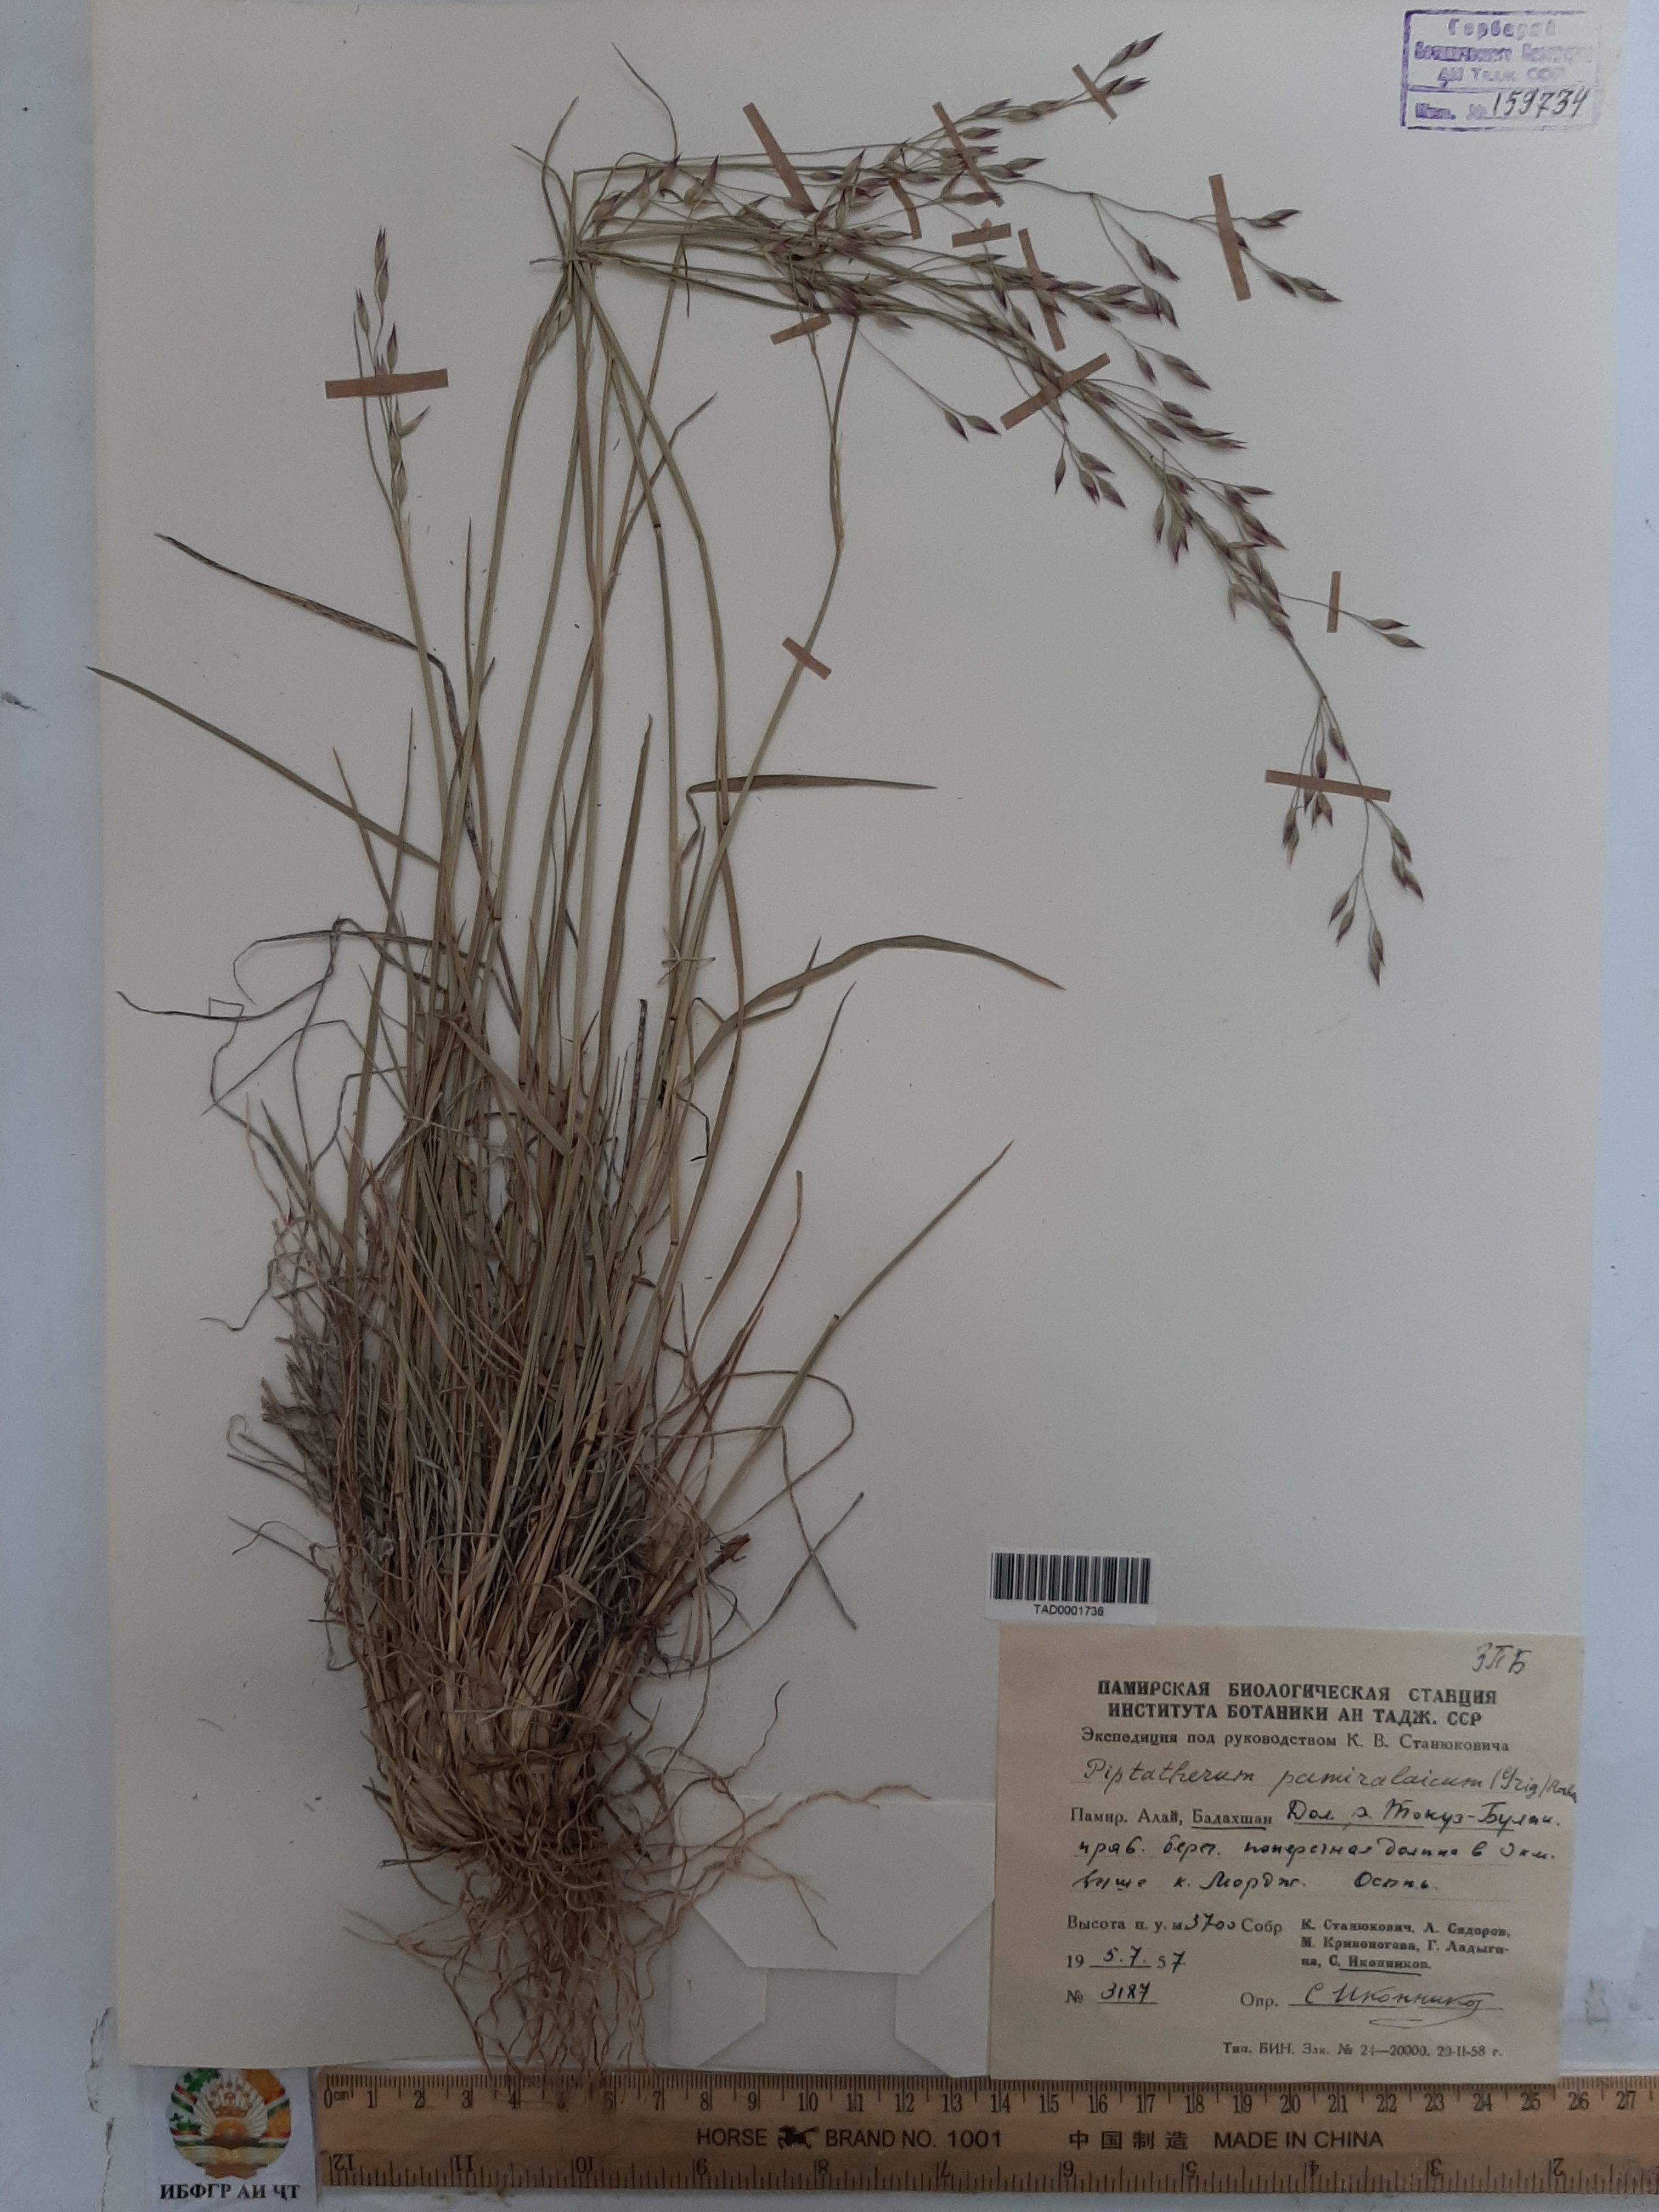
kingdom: Plantae
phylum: Tracheophyta
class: Liliopsida
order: Poales
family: Poaceae
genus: Piptatherum
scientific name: Piptatherum pamiralaicum
